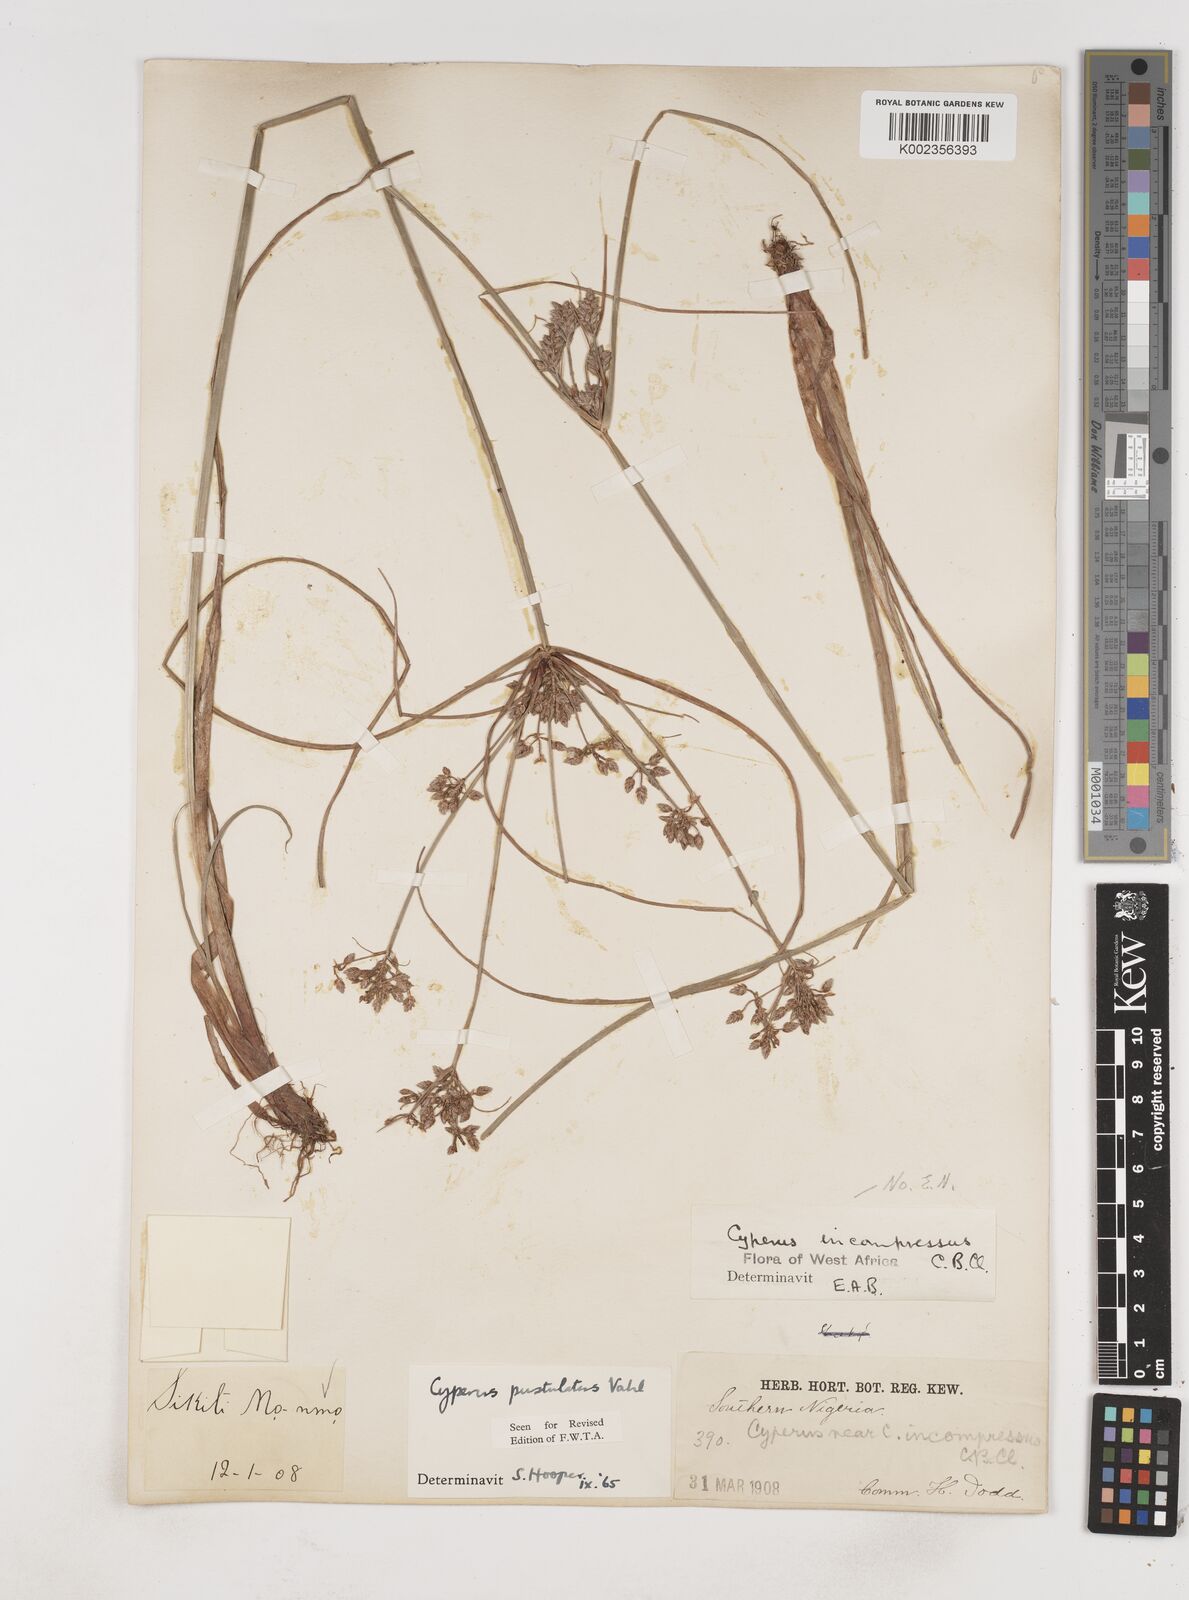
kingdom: Plantae
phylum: Tracheophyta
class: Liliopsida
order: Poales
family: Cyperaceae
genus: Cyperus
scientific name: Cyperus pustulatus
